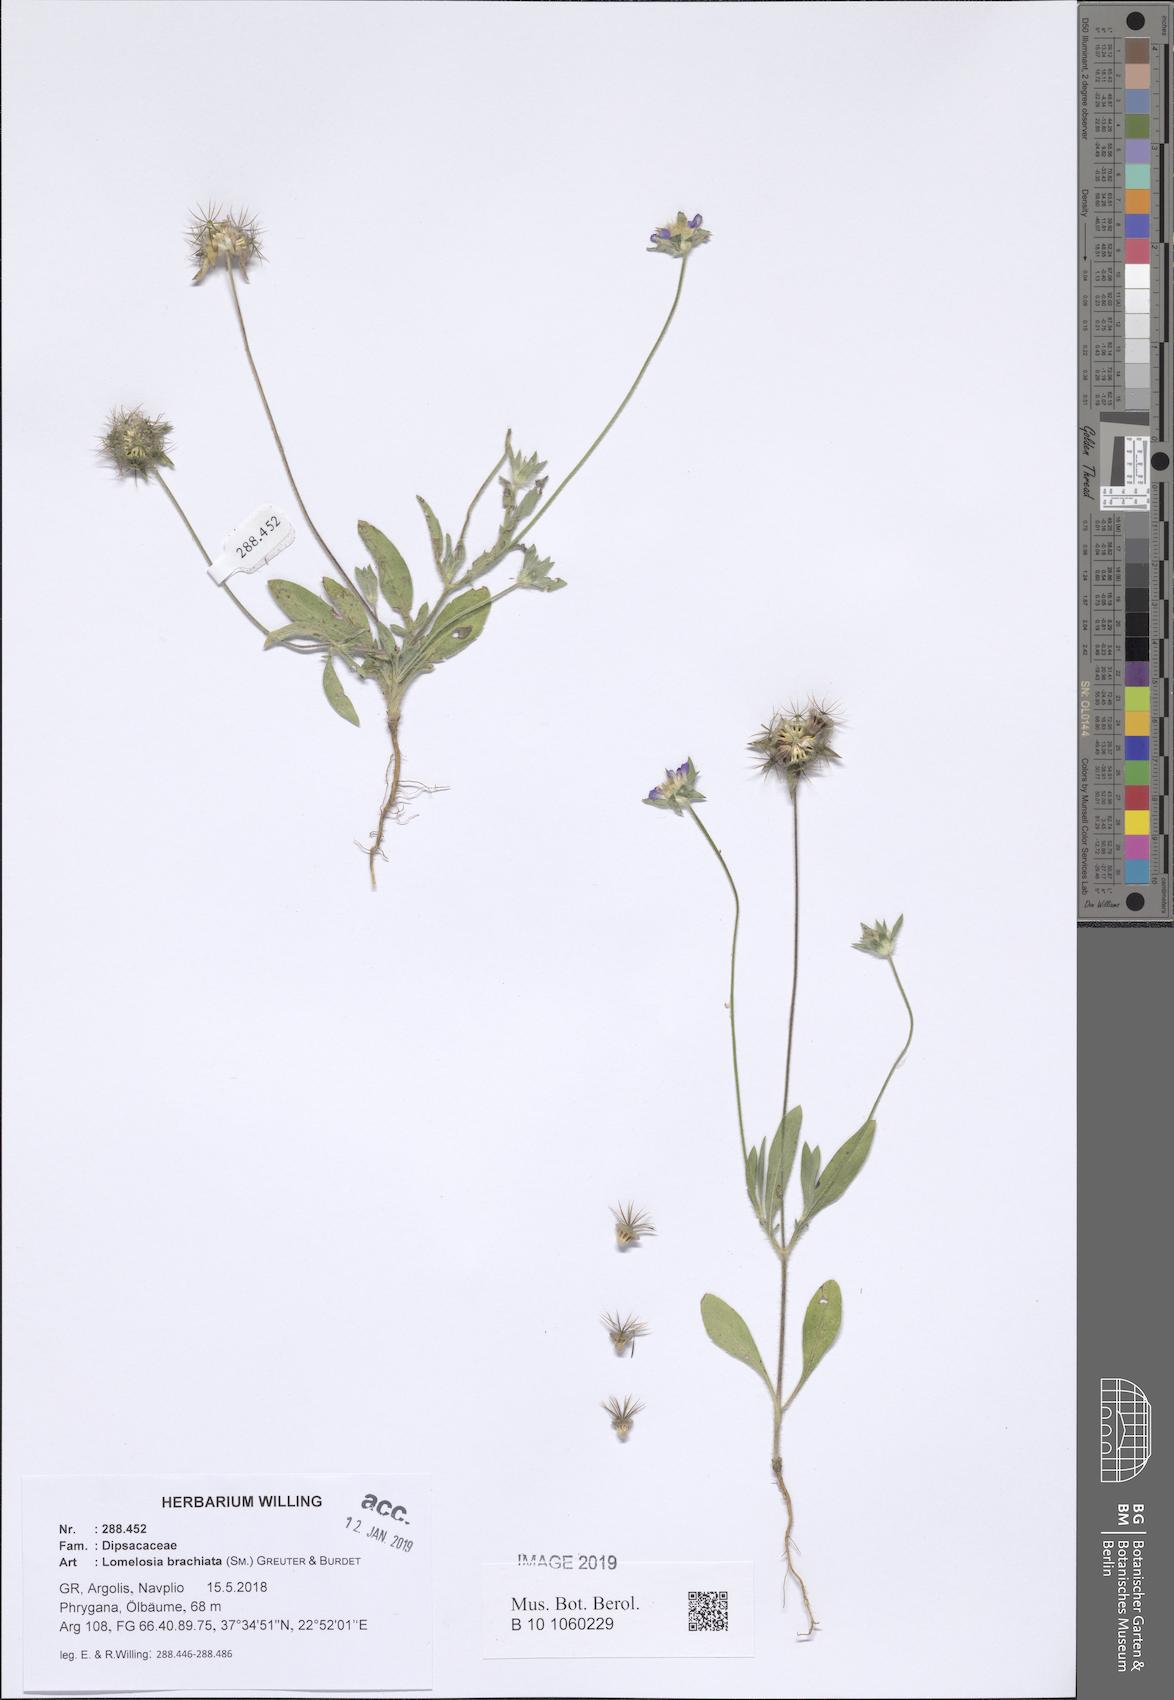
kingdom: Plantae
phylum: Tracheophyta
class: Magnoliopsida
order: Dipsacales
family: Caprifoliaceae
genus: Lomelosia
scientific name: Lomelosia brachiata
